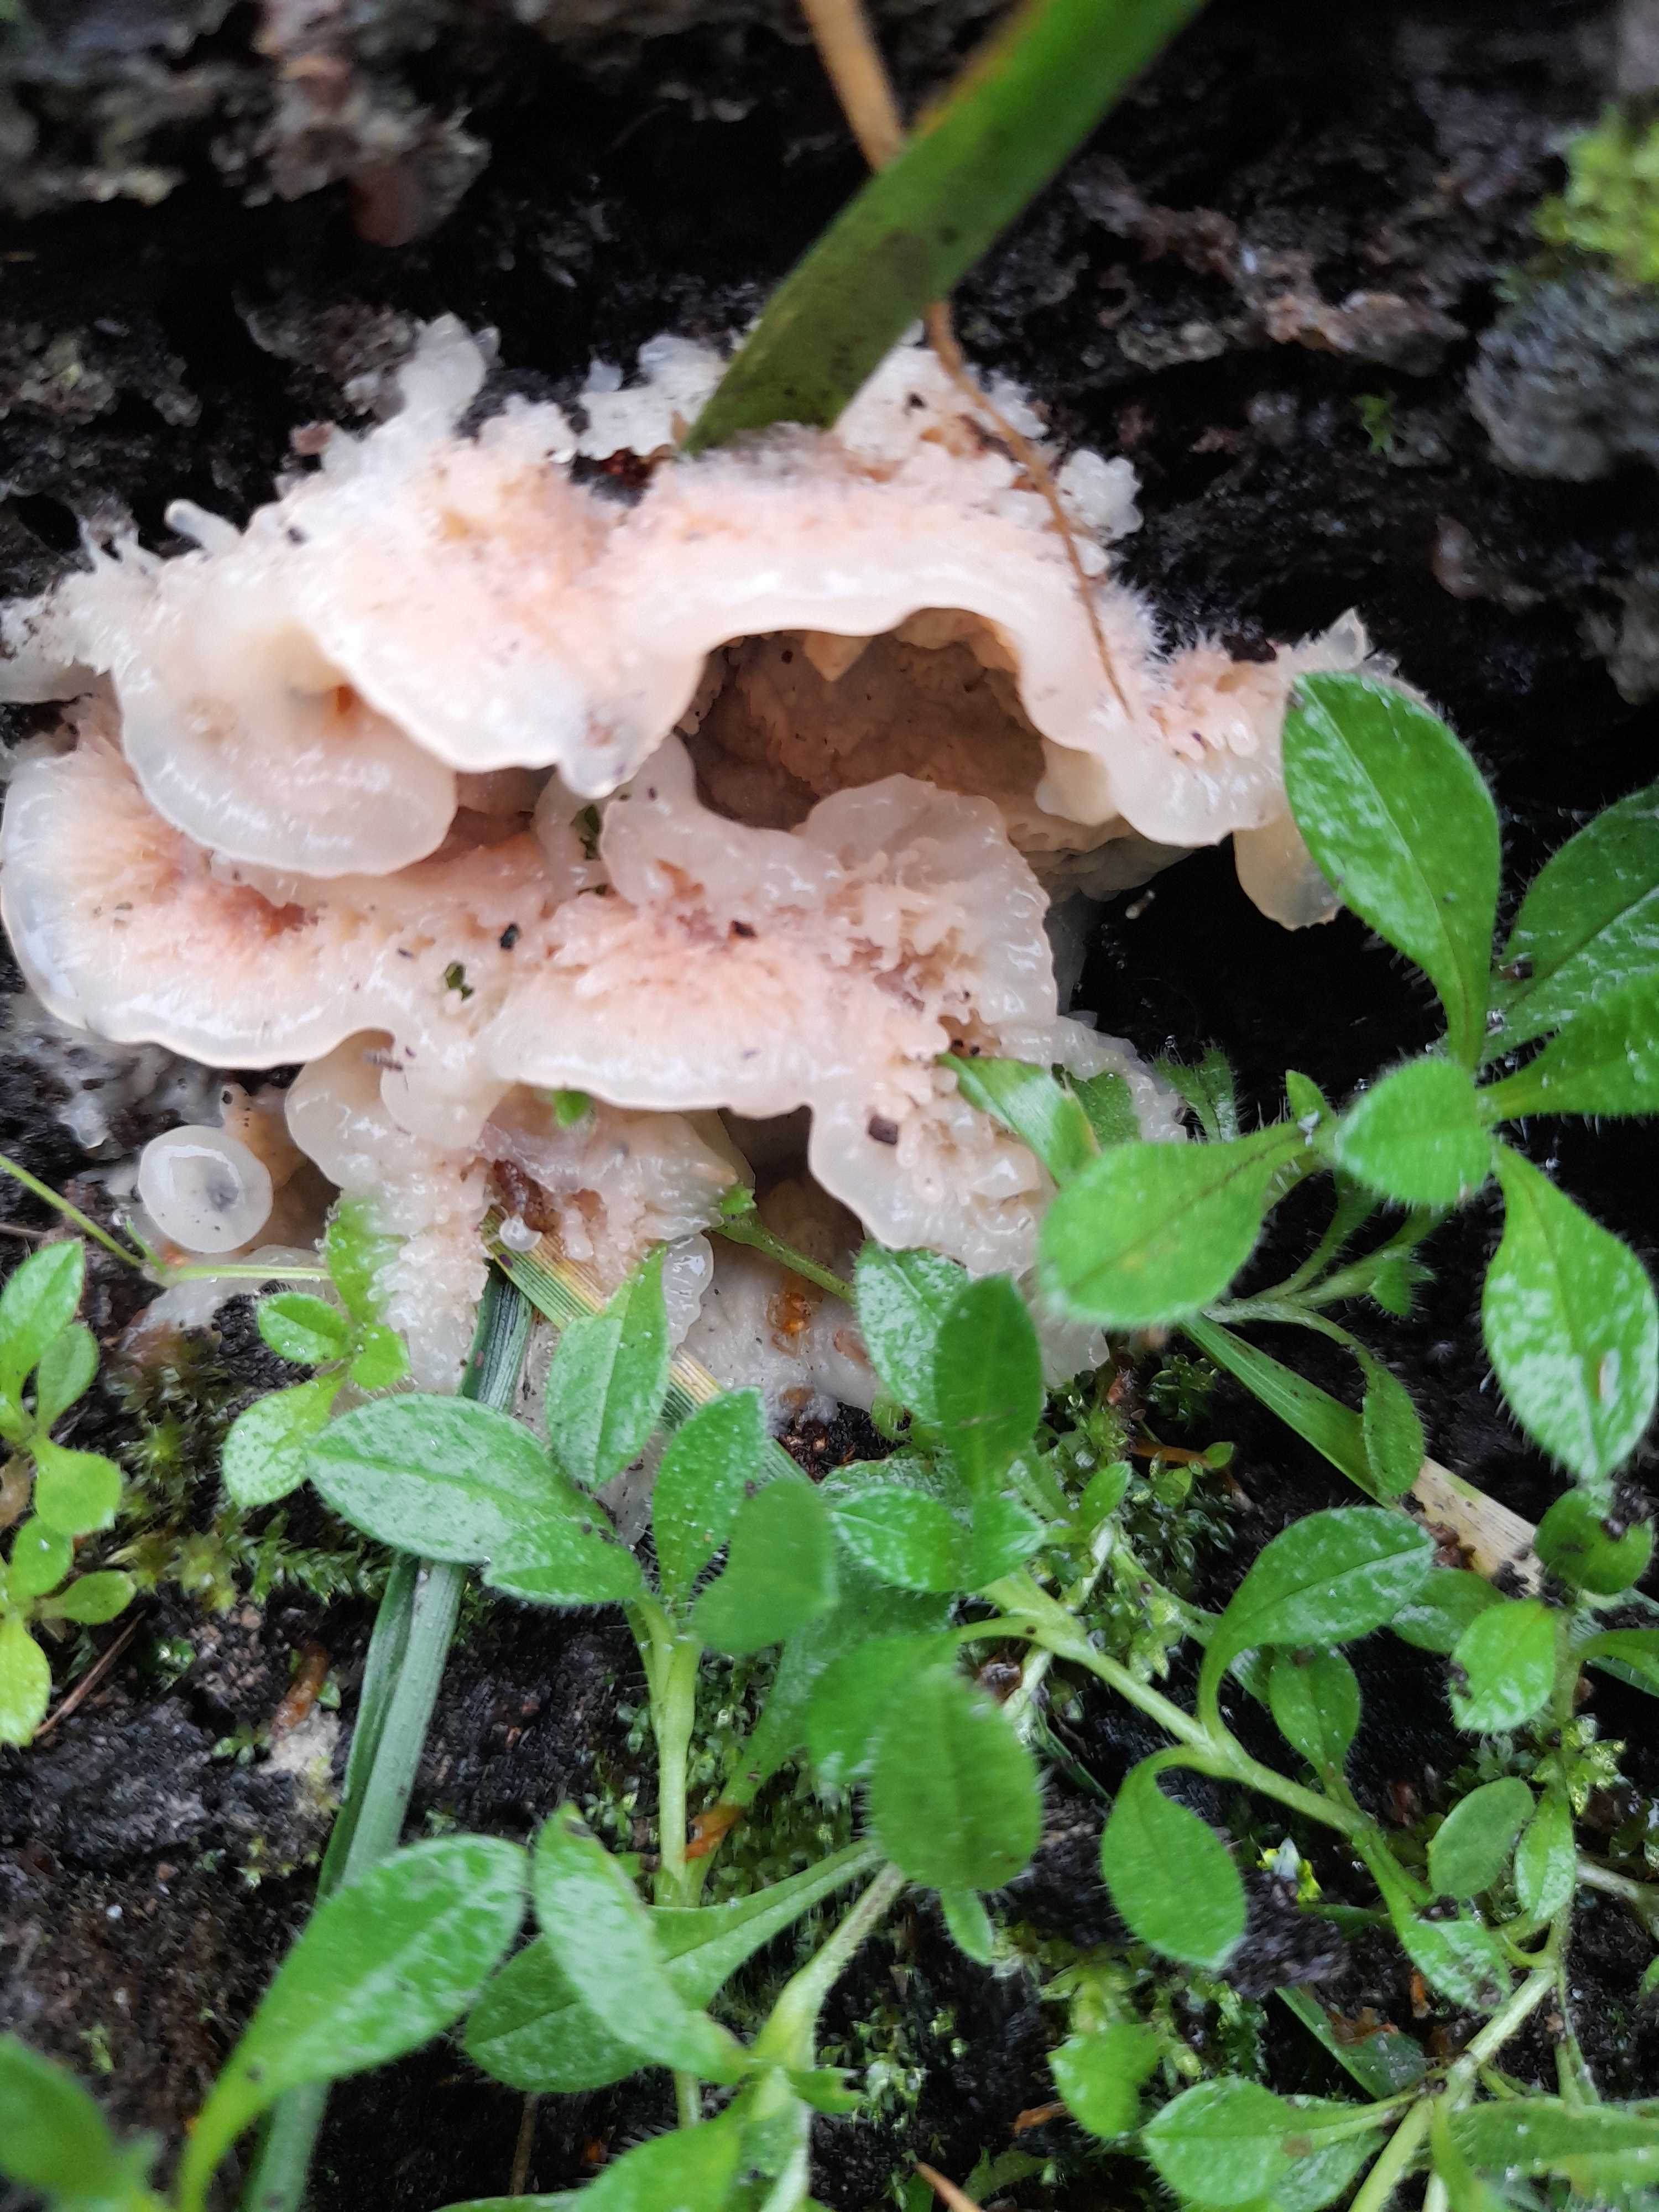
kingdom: Fungi
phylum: Basidiomycota
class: Agaricomycetes
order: Polyporales
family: Meruliaceae
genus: Phlebia
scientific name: Phlebia tremellosa
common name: bævrende åresvamp
